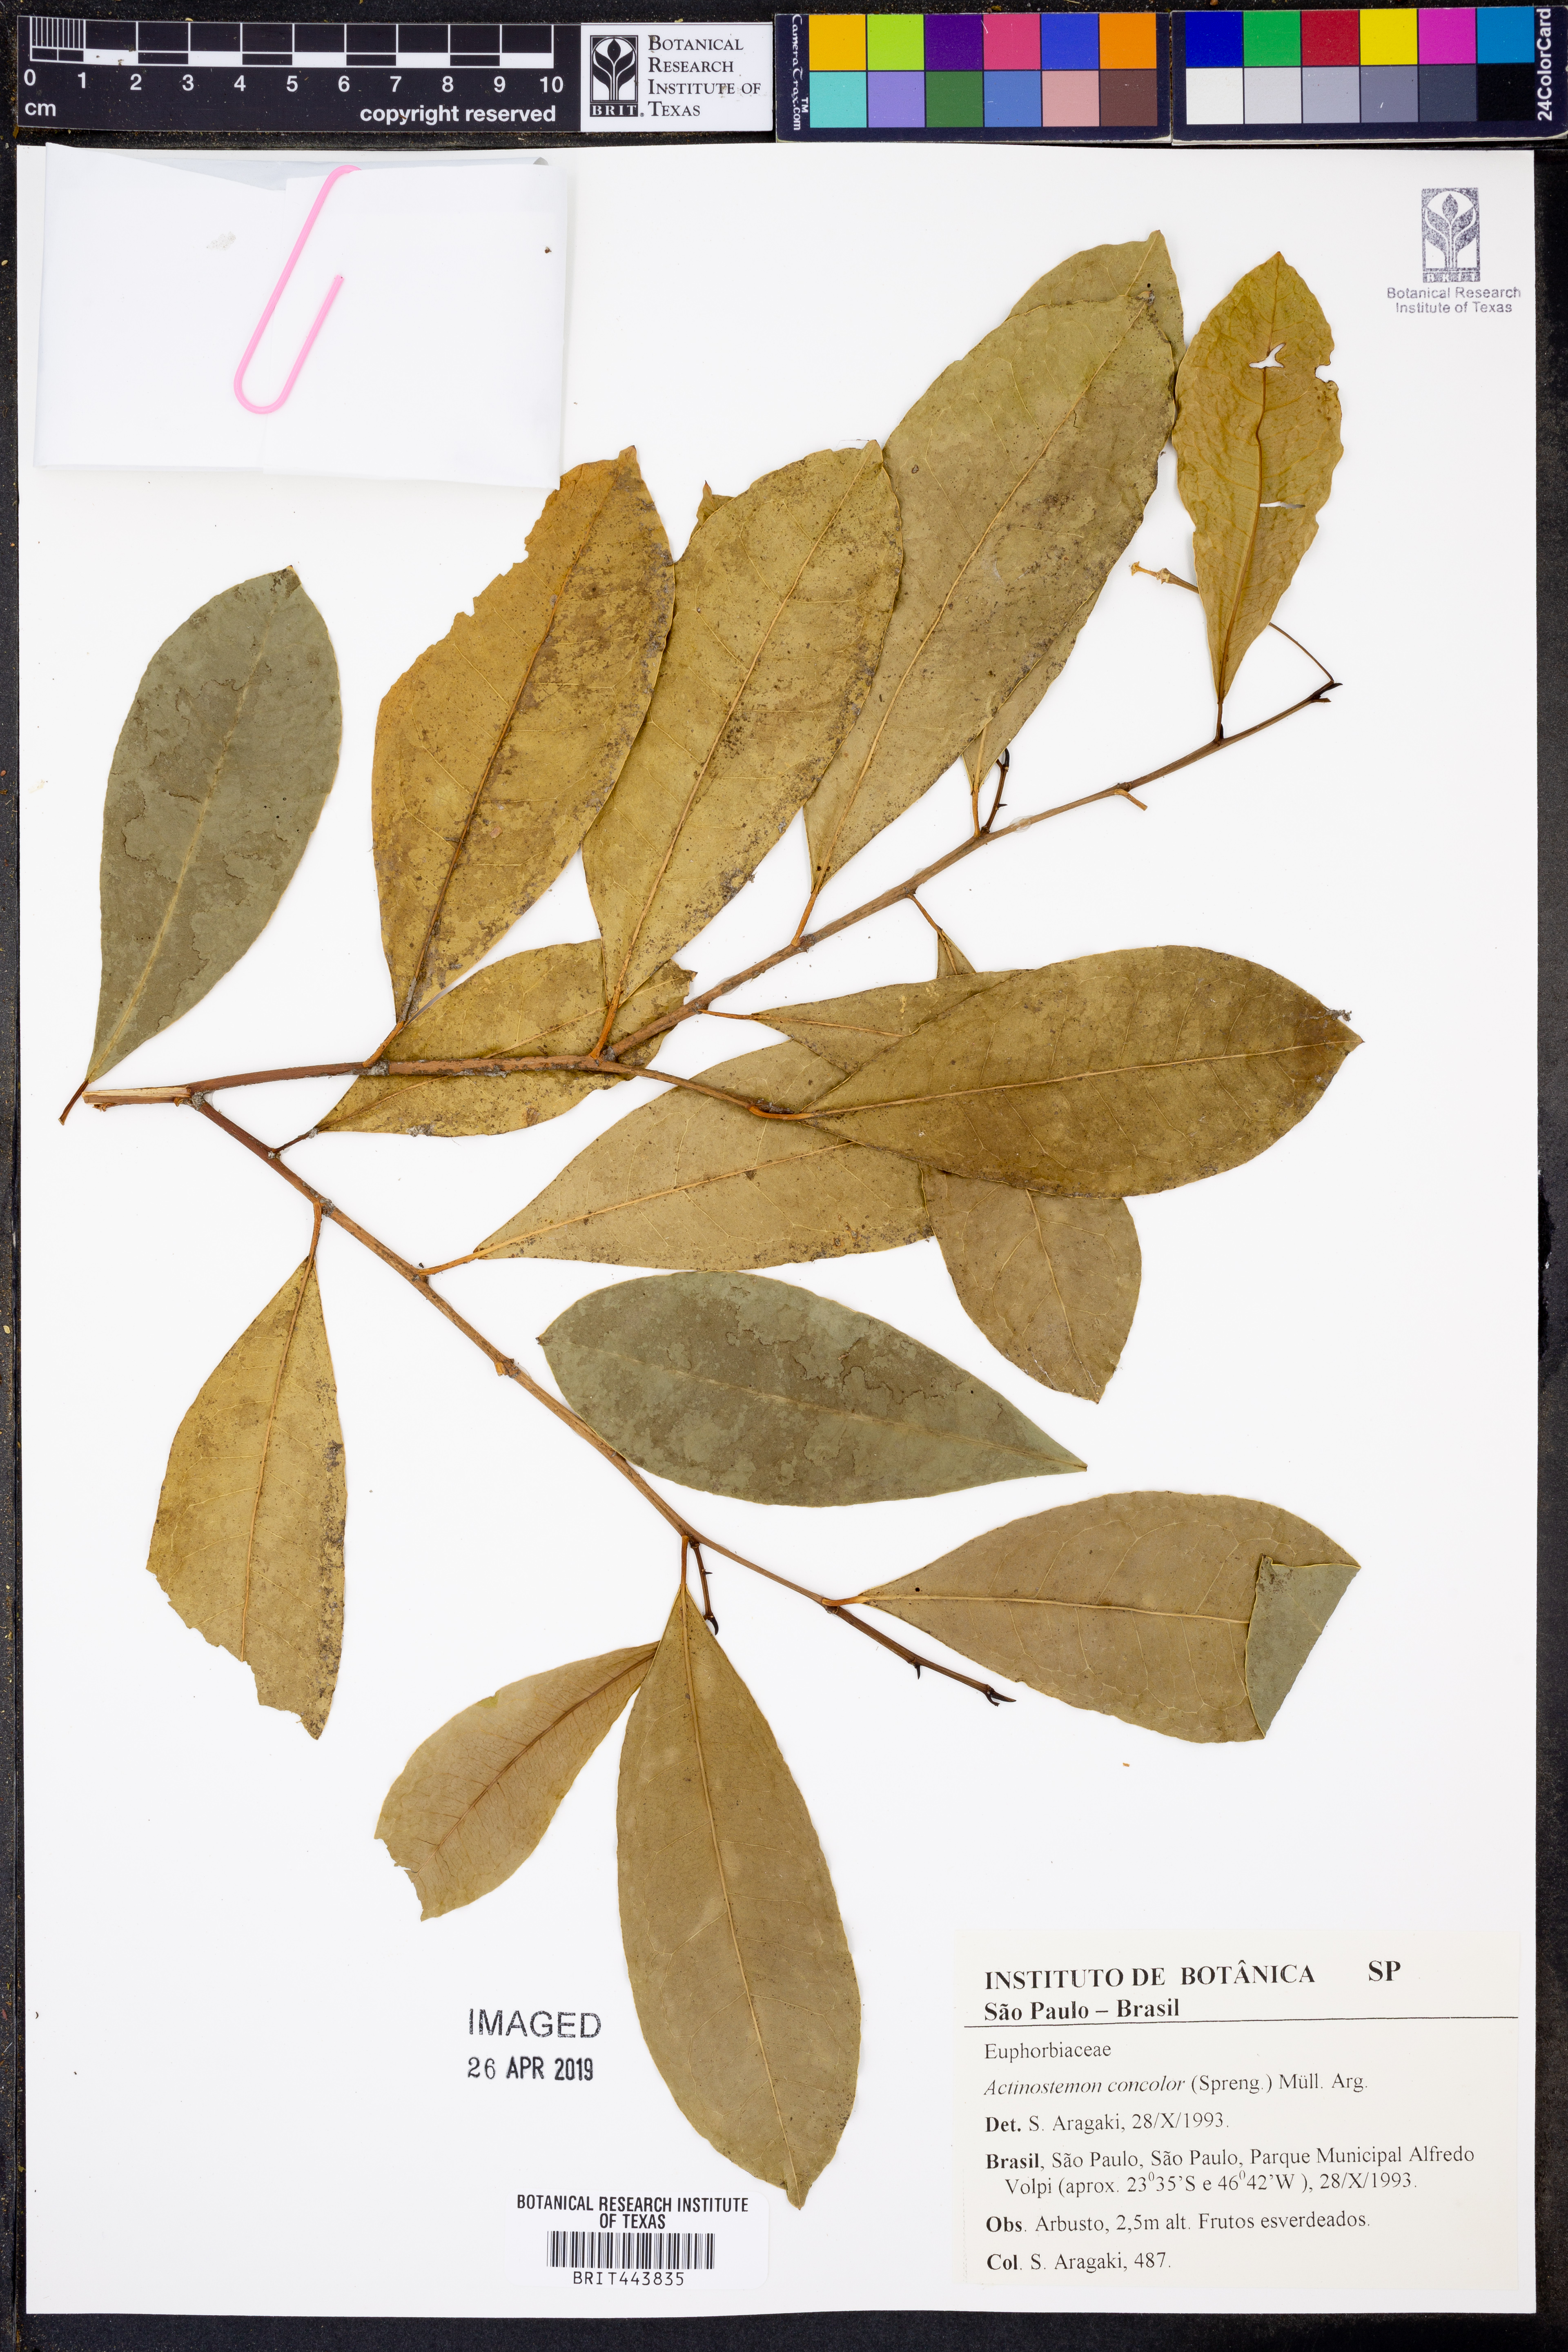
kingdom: Plantae
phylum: Tracheophyta
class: Magnoliopsida
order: Malpighiales
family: Euphorbiaceae
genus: Actinostemon
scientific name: Actinostemon concolor
